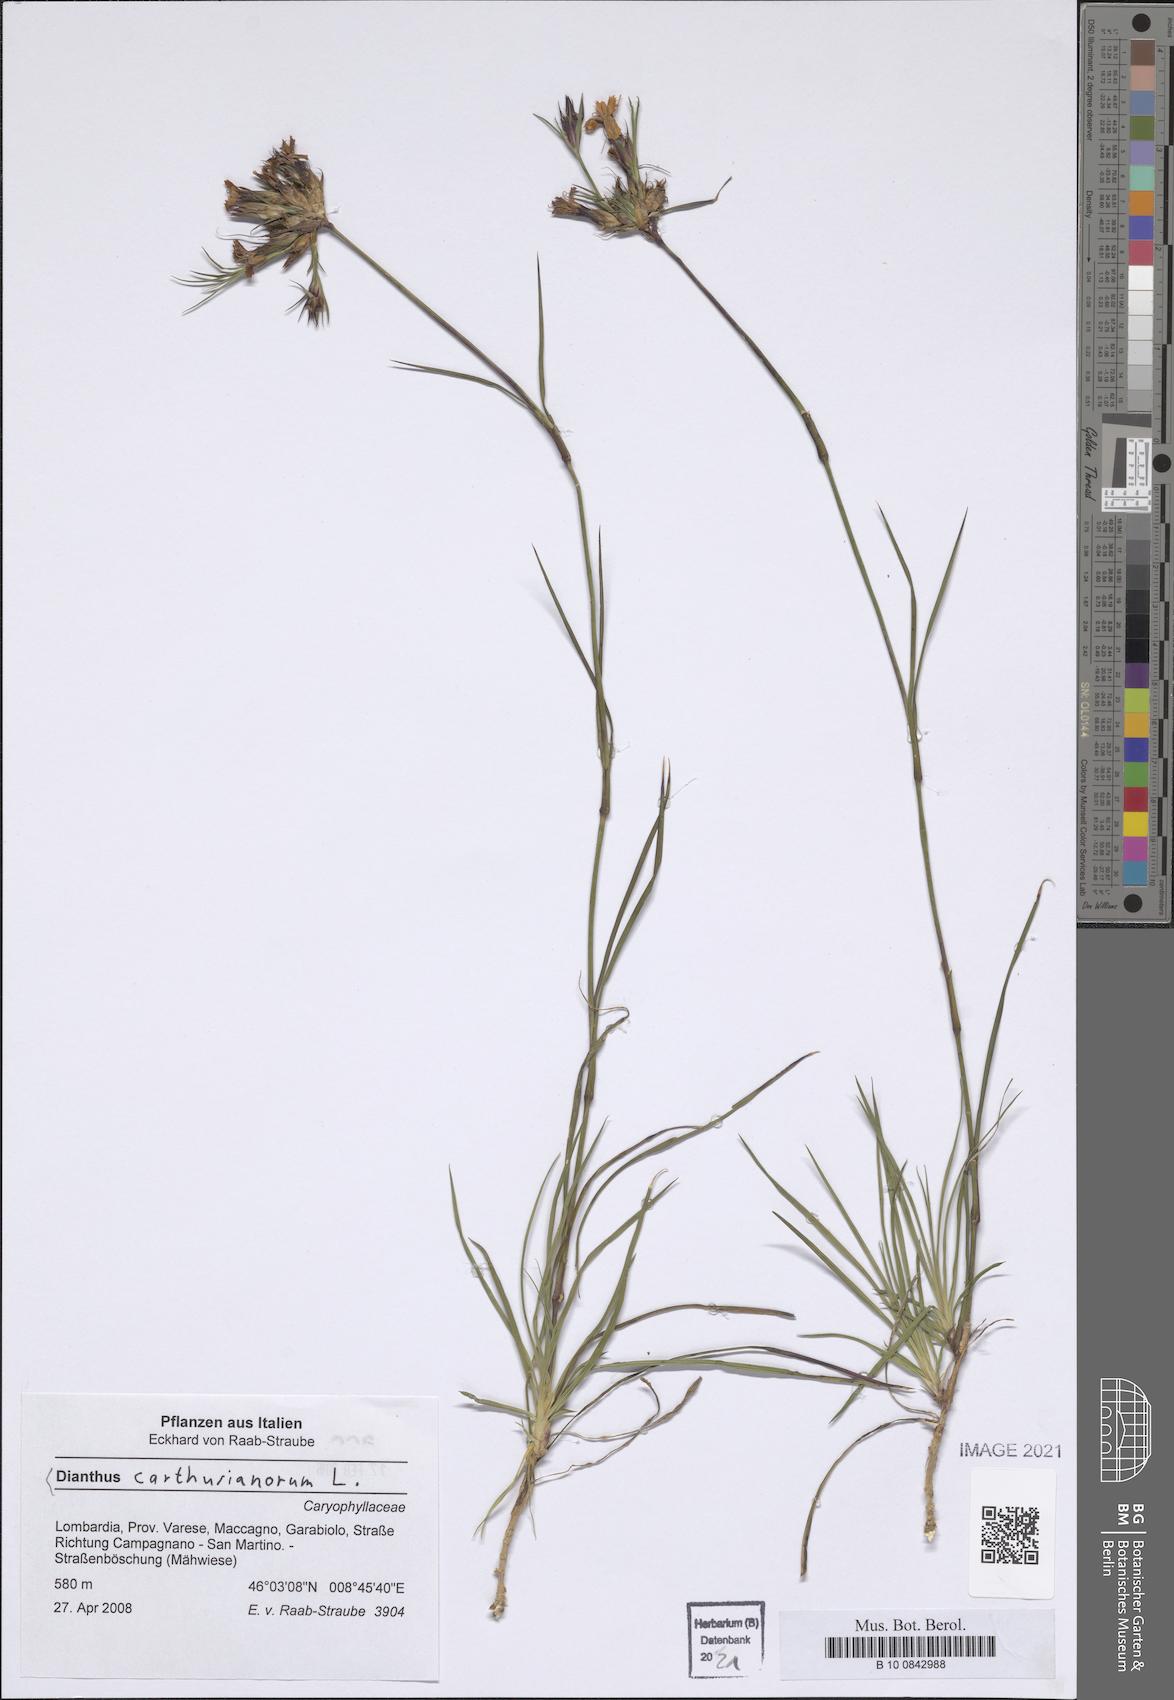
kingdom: Plantae
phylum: Tracheophyta
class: Magnoliopsida
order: Caryophyllales
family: Caryophyllaceae
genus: Dianthus
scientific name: Dianthus carthusianorum
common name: Carthusian pink
